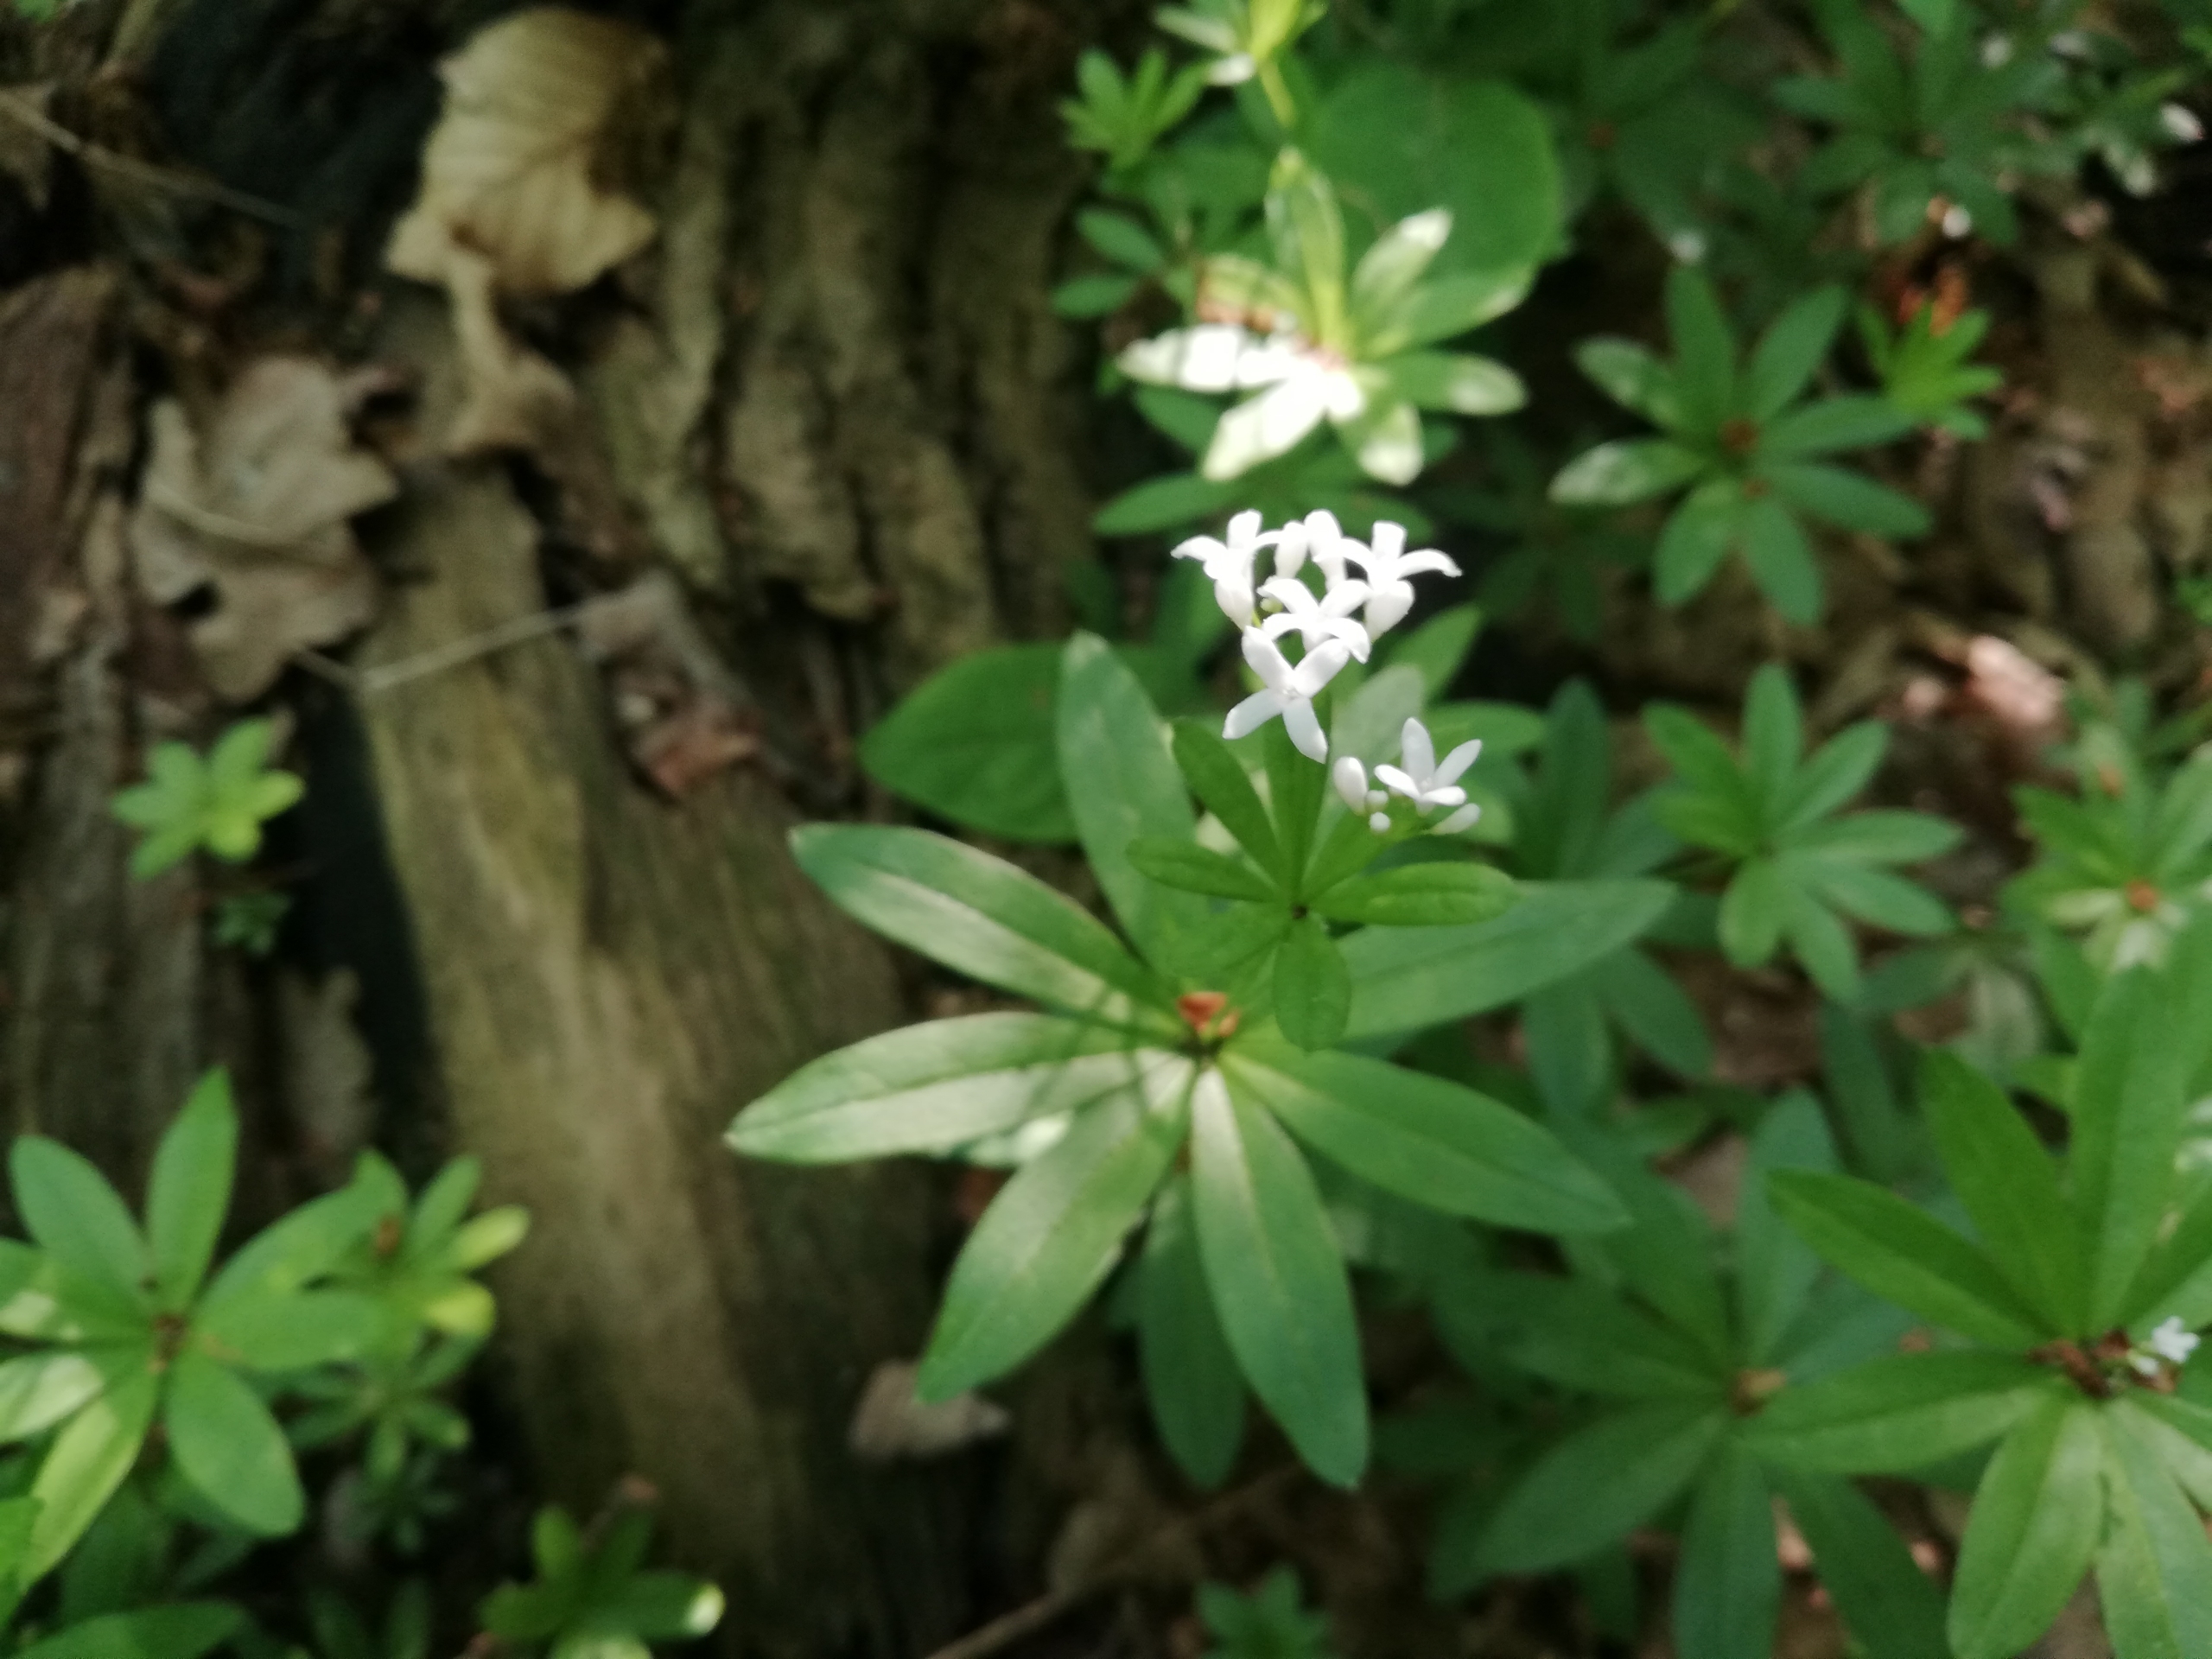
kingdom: Plantae
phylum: Tracheophyta
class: Magnoliopsida
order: Gentianales
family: Rubiaceae
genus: Galium
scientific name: Galium odoratum
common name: Skovmærke
